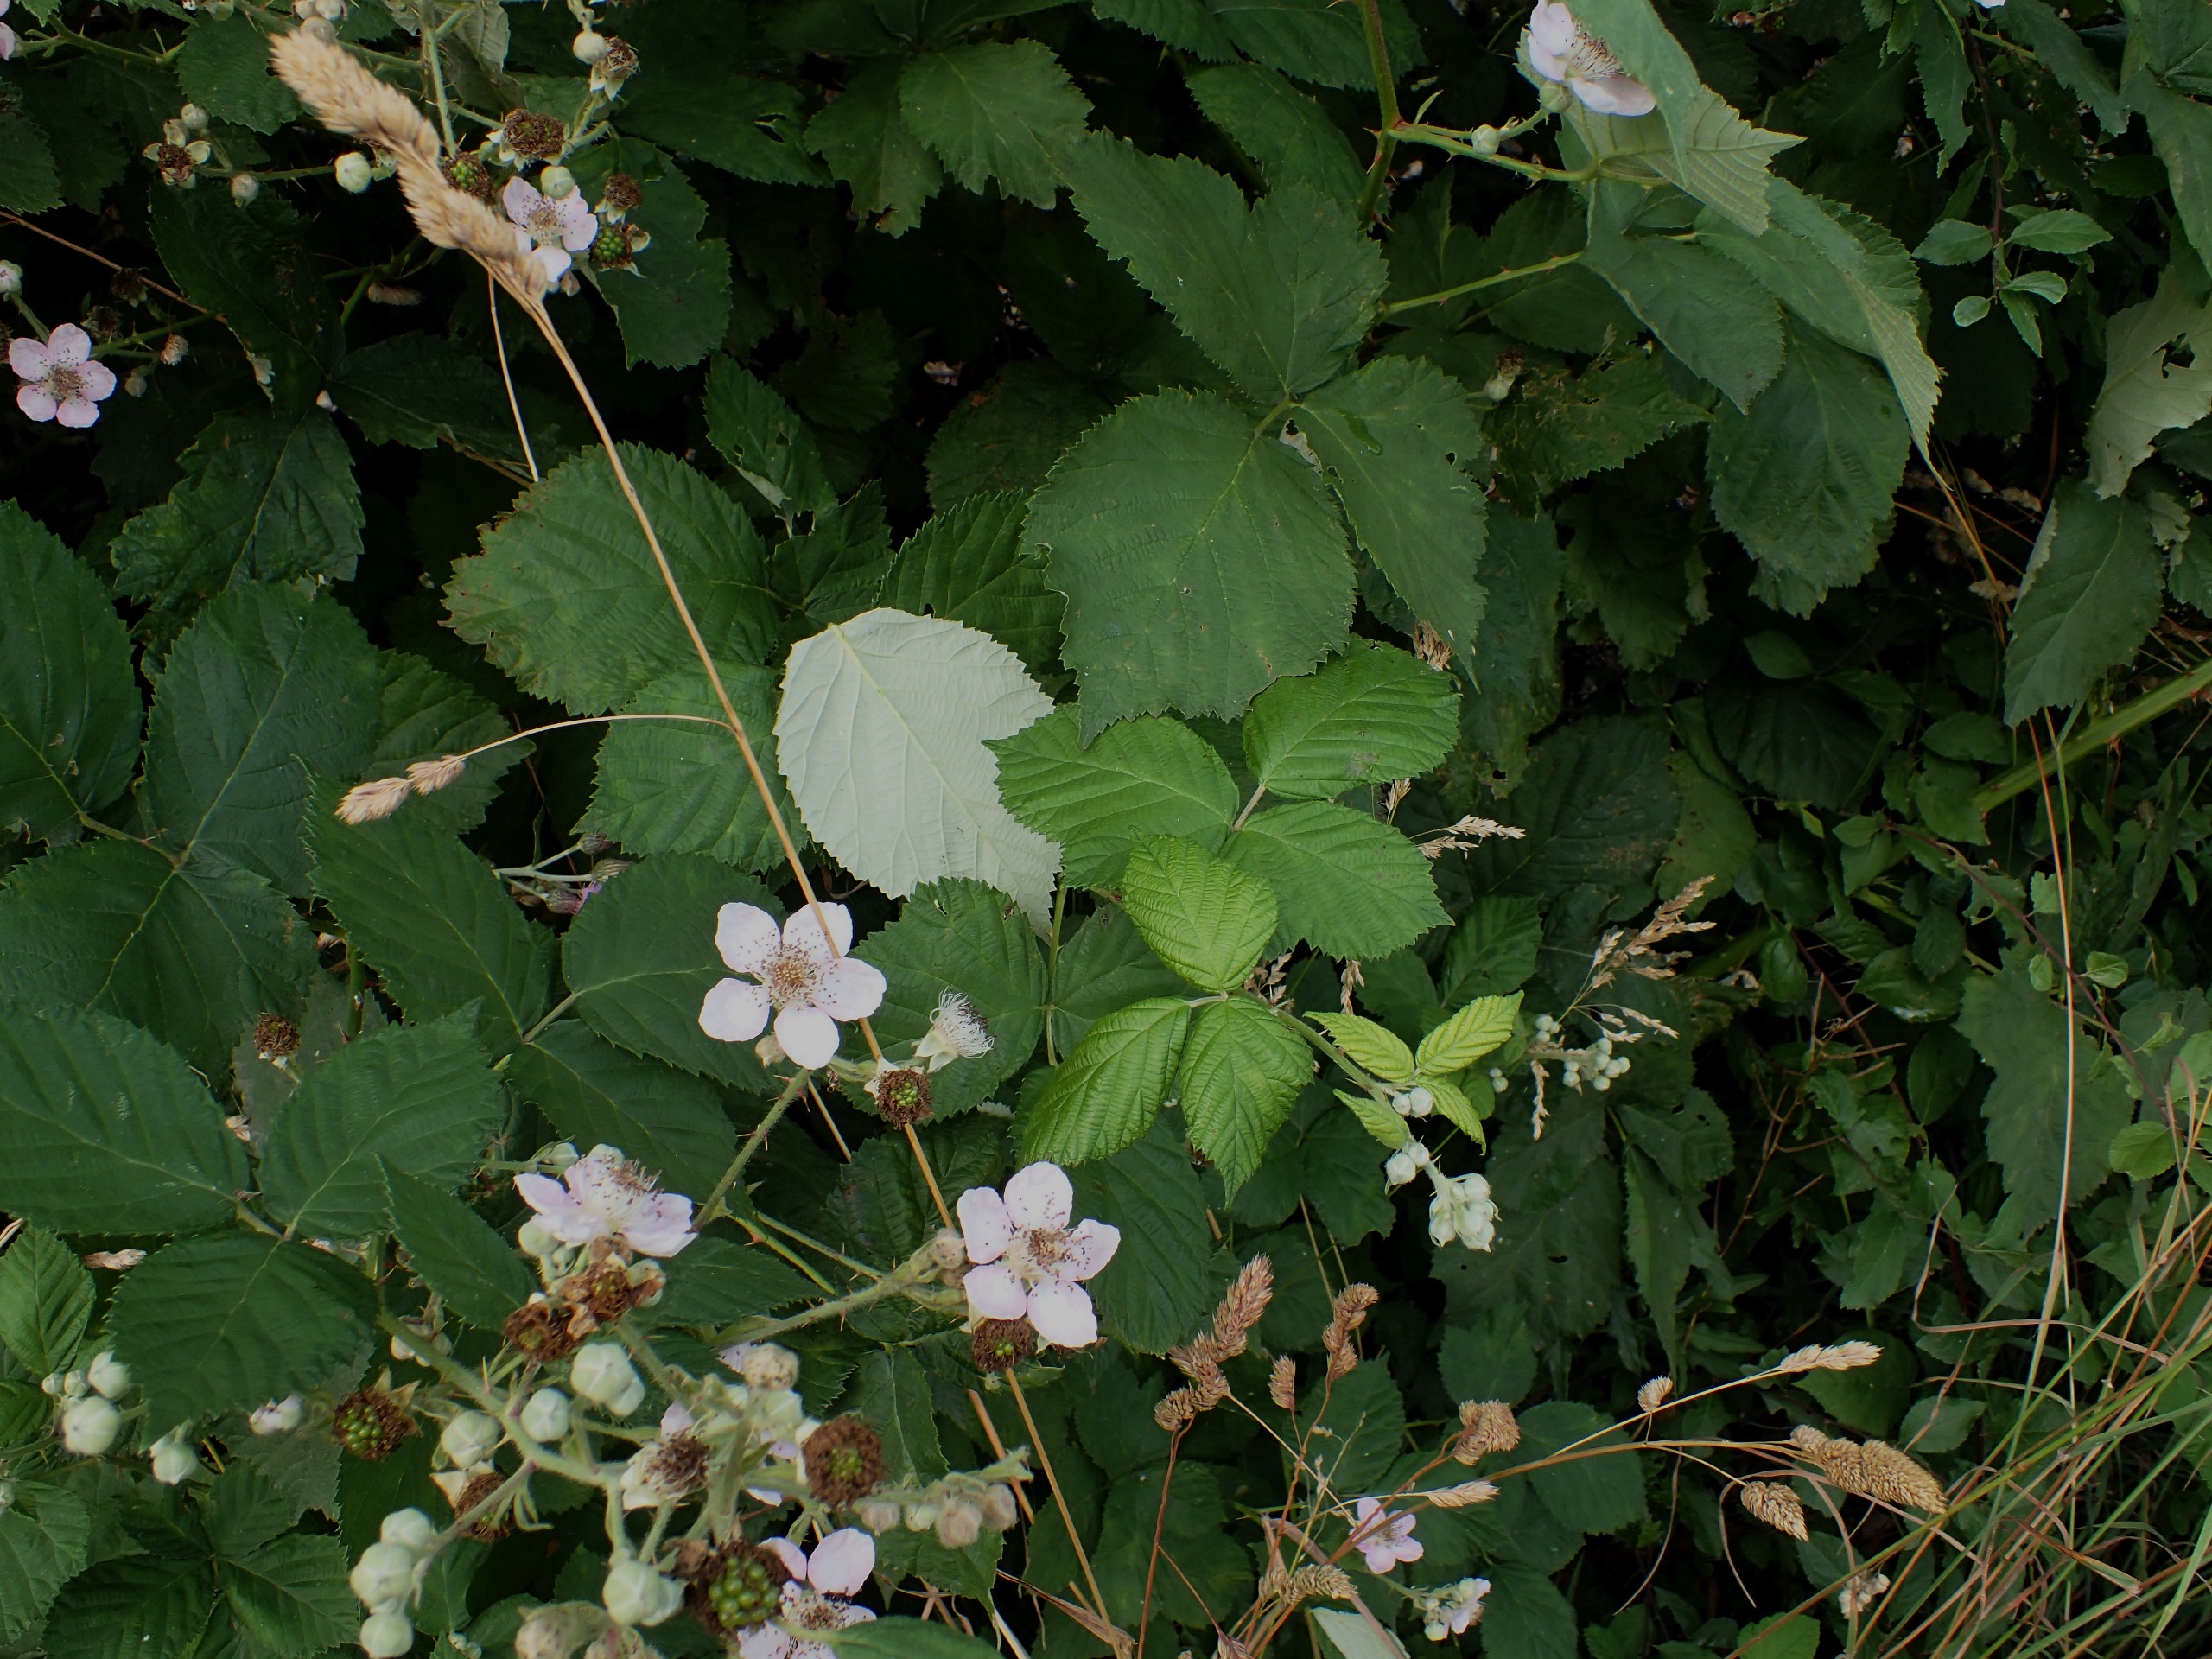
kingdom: Plantae
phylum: Tracheophyta
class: Magnoliopsida
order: Rosales
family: Rosaceae
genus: Rubus
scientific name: Rubus armeniacus
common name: Armensk brombær
